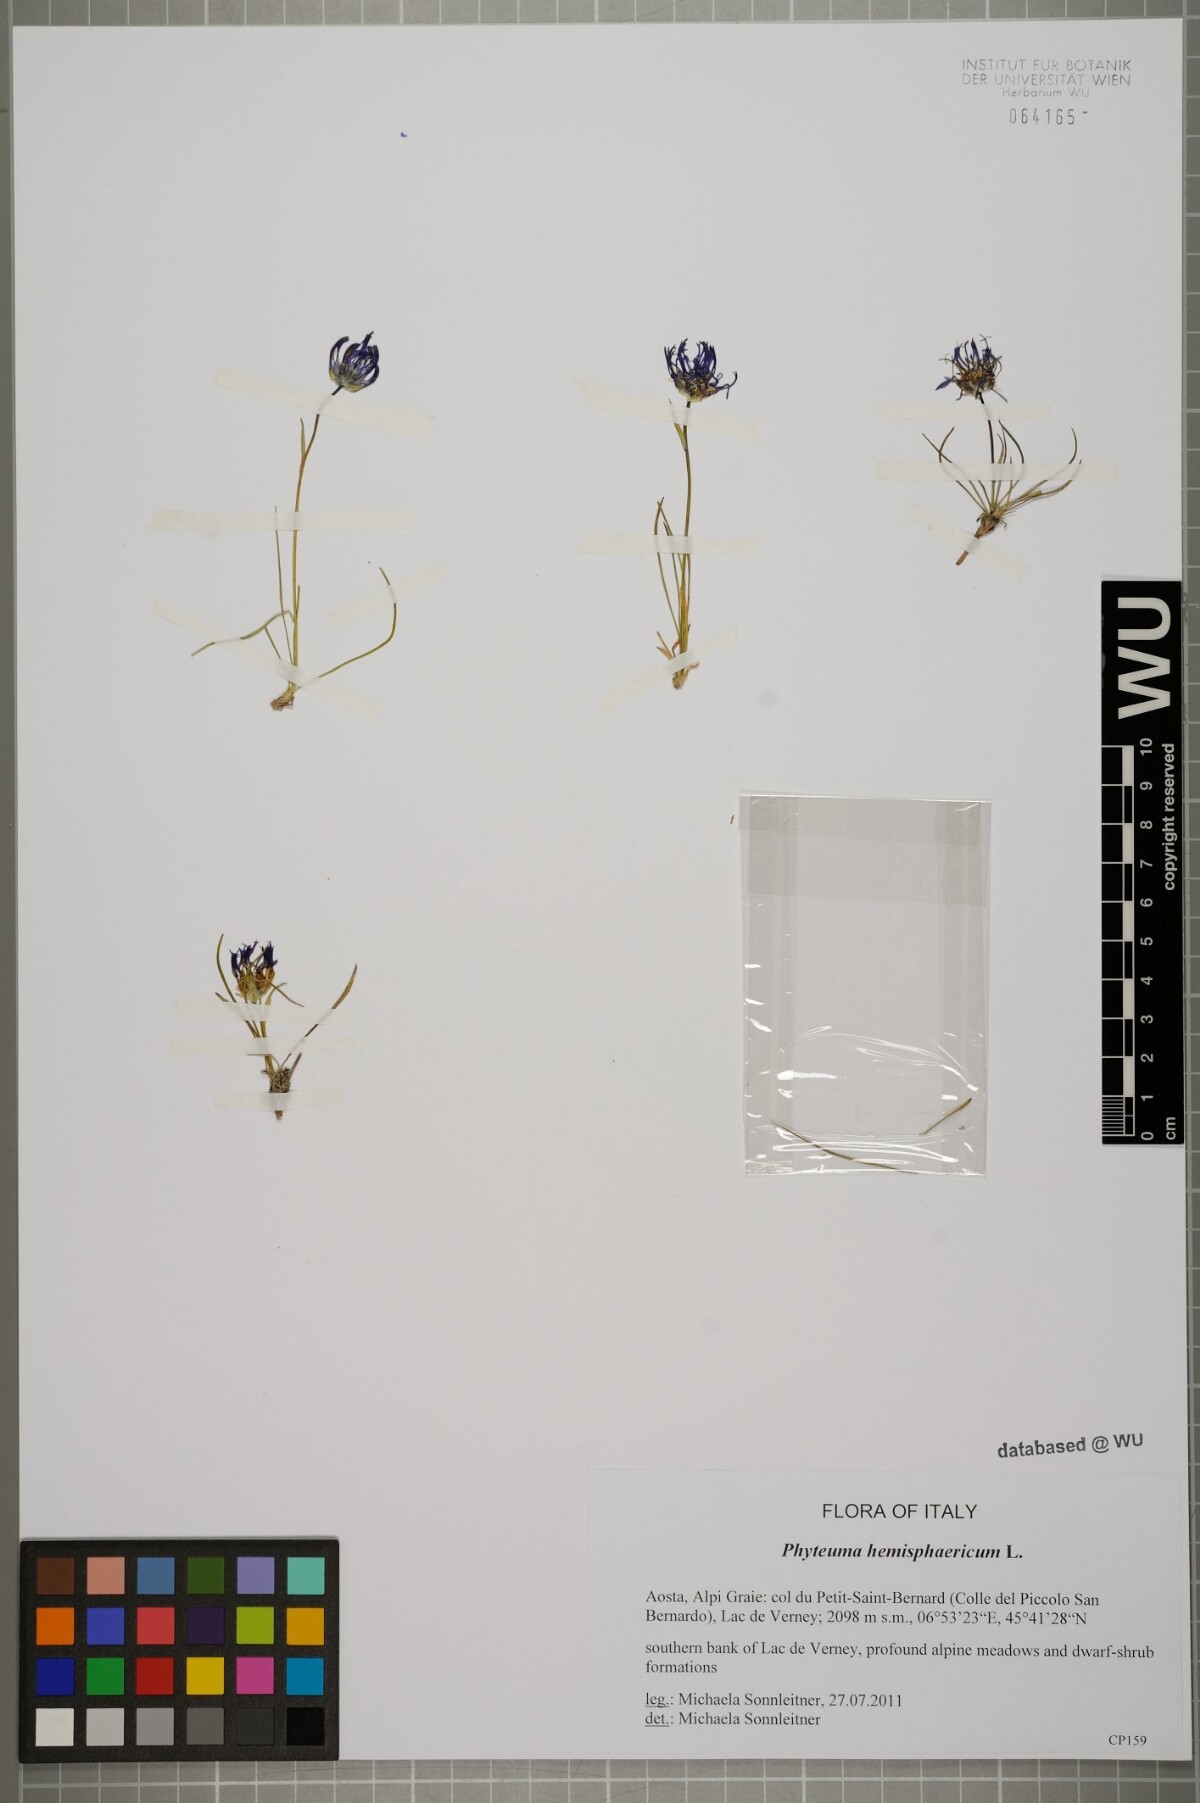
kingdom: Plantae
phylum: Tracheophyta
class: Magnoliopsida
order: Asterales
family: Campanulaceae
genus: Phyteuma
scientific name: Phyteuma hemisphaericum
